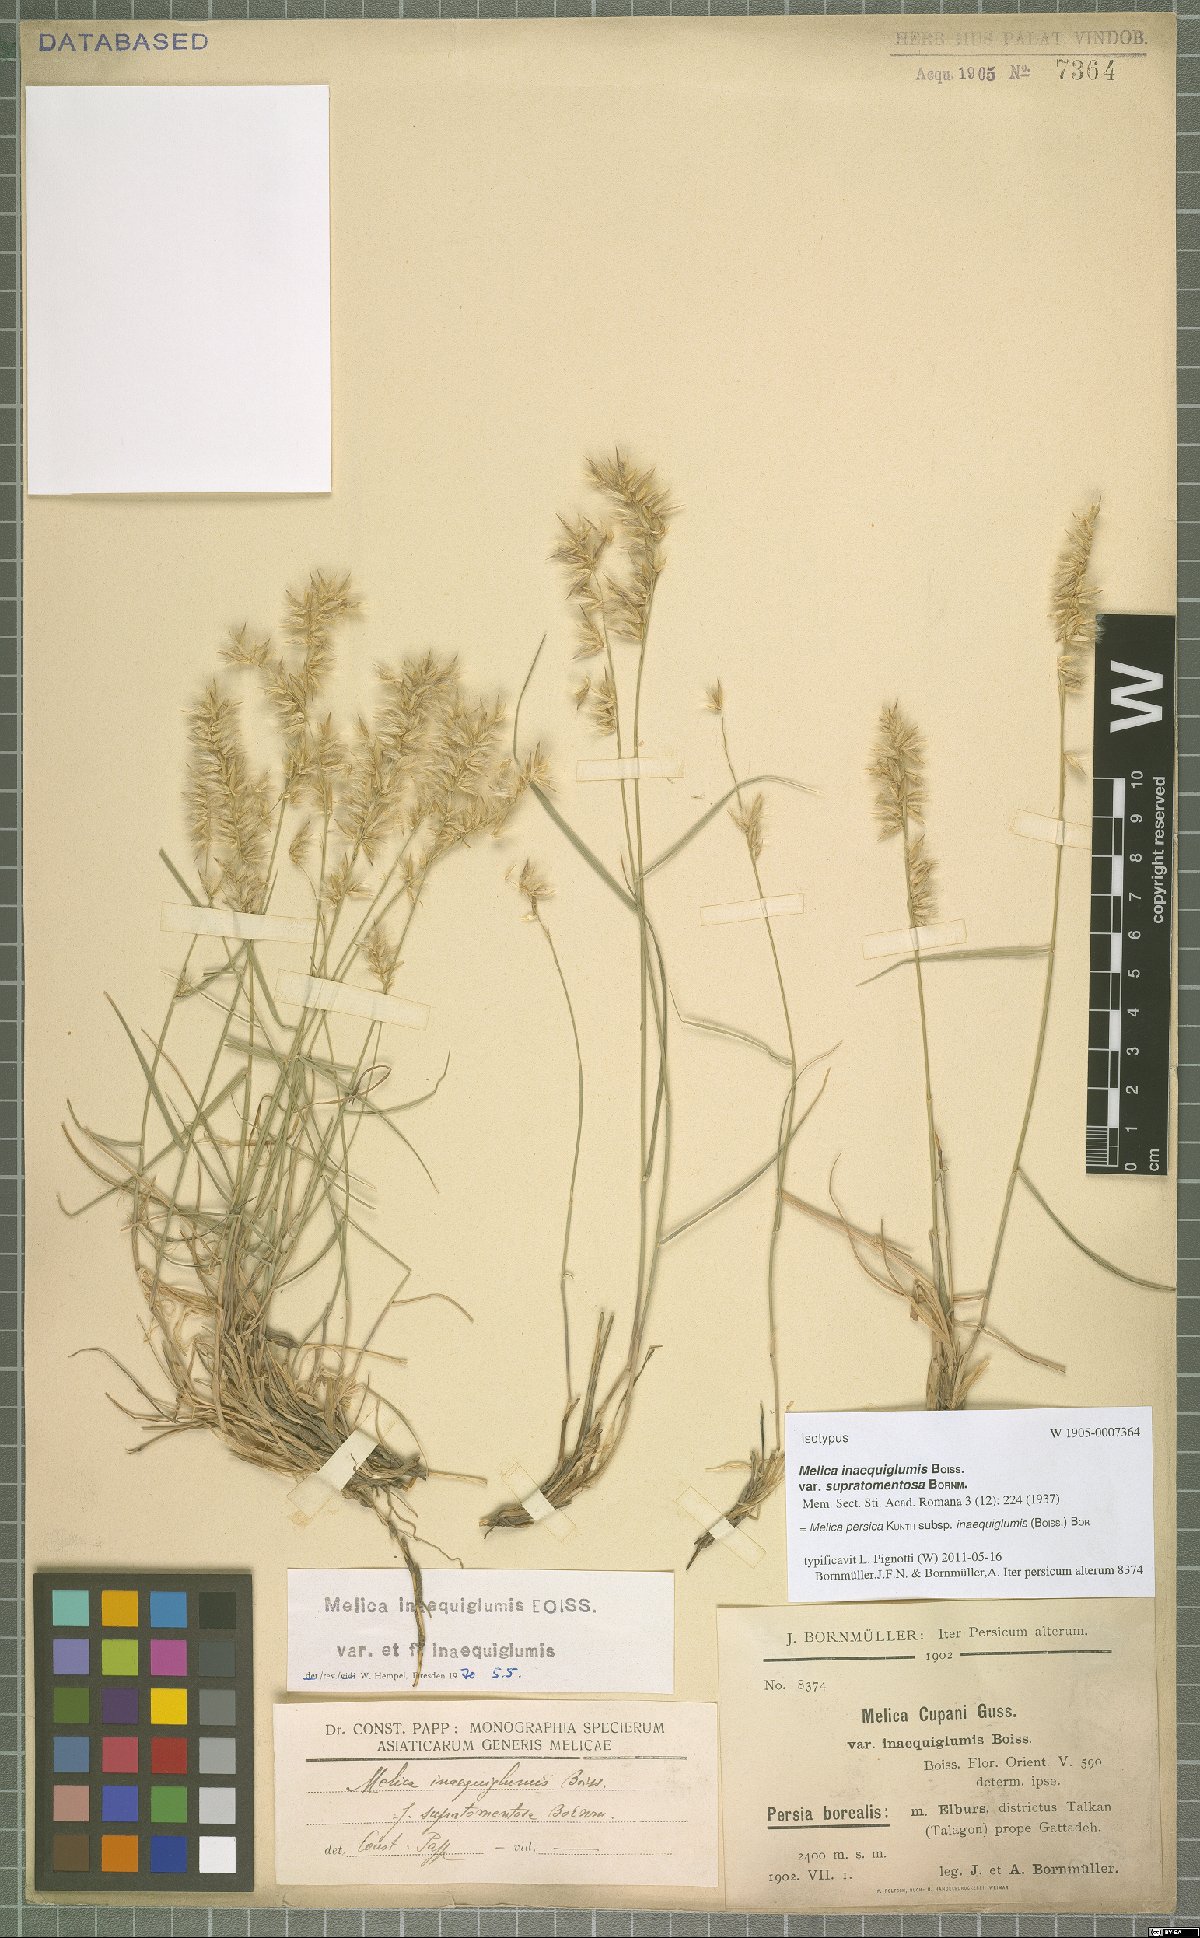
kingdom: Plantae
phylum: Tracheophyta
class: Liliopsida
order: Poales
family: Poaceae
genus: Melica
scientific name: Melica persica
